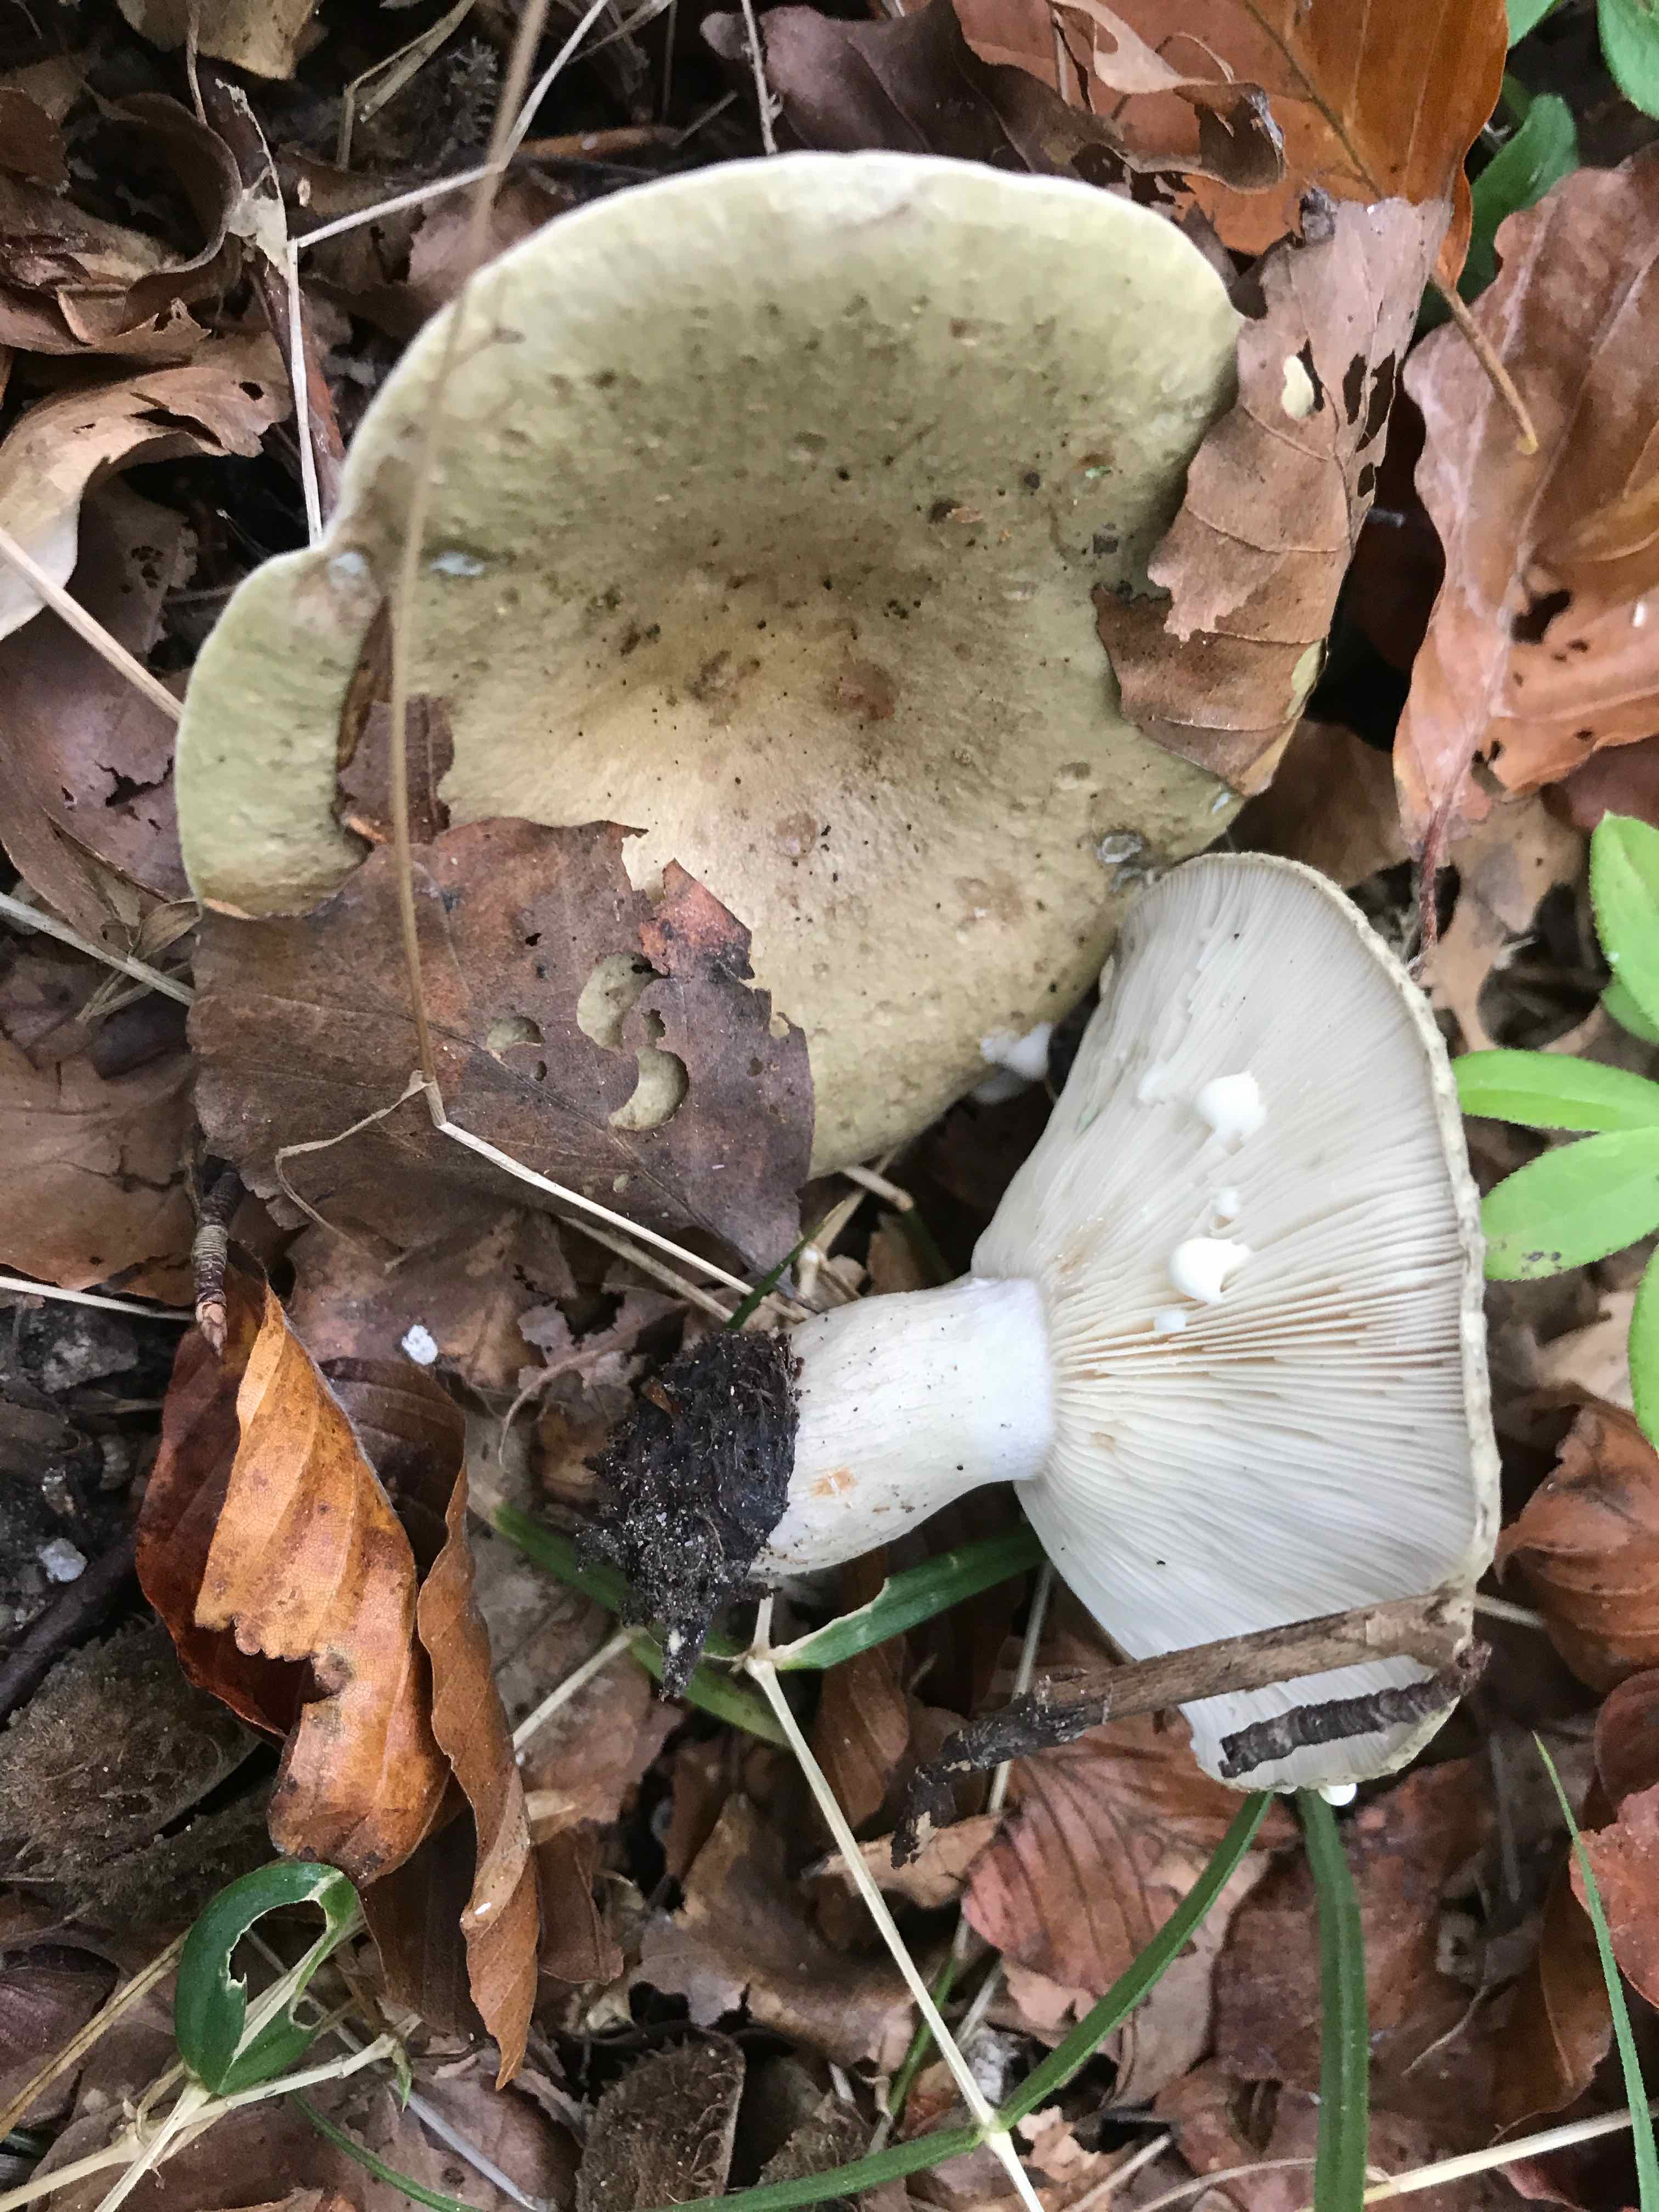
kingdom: Fungi
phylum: Basidiomycota
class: Agaricomycetes
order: Russulales
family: Russulaceae
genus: Lactarius
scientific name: Lactarius blennius
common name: dråbeplettet mælkehat
